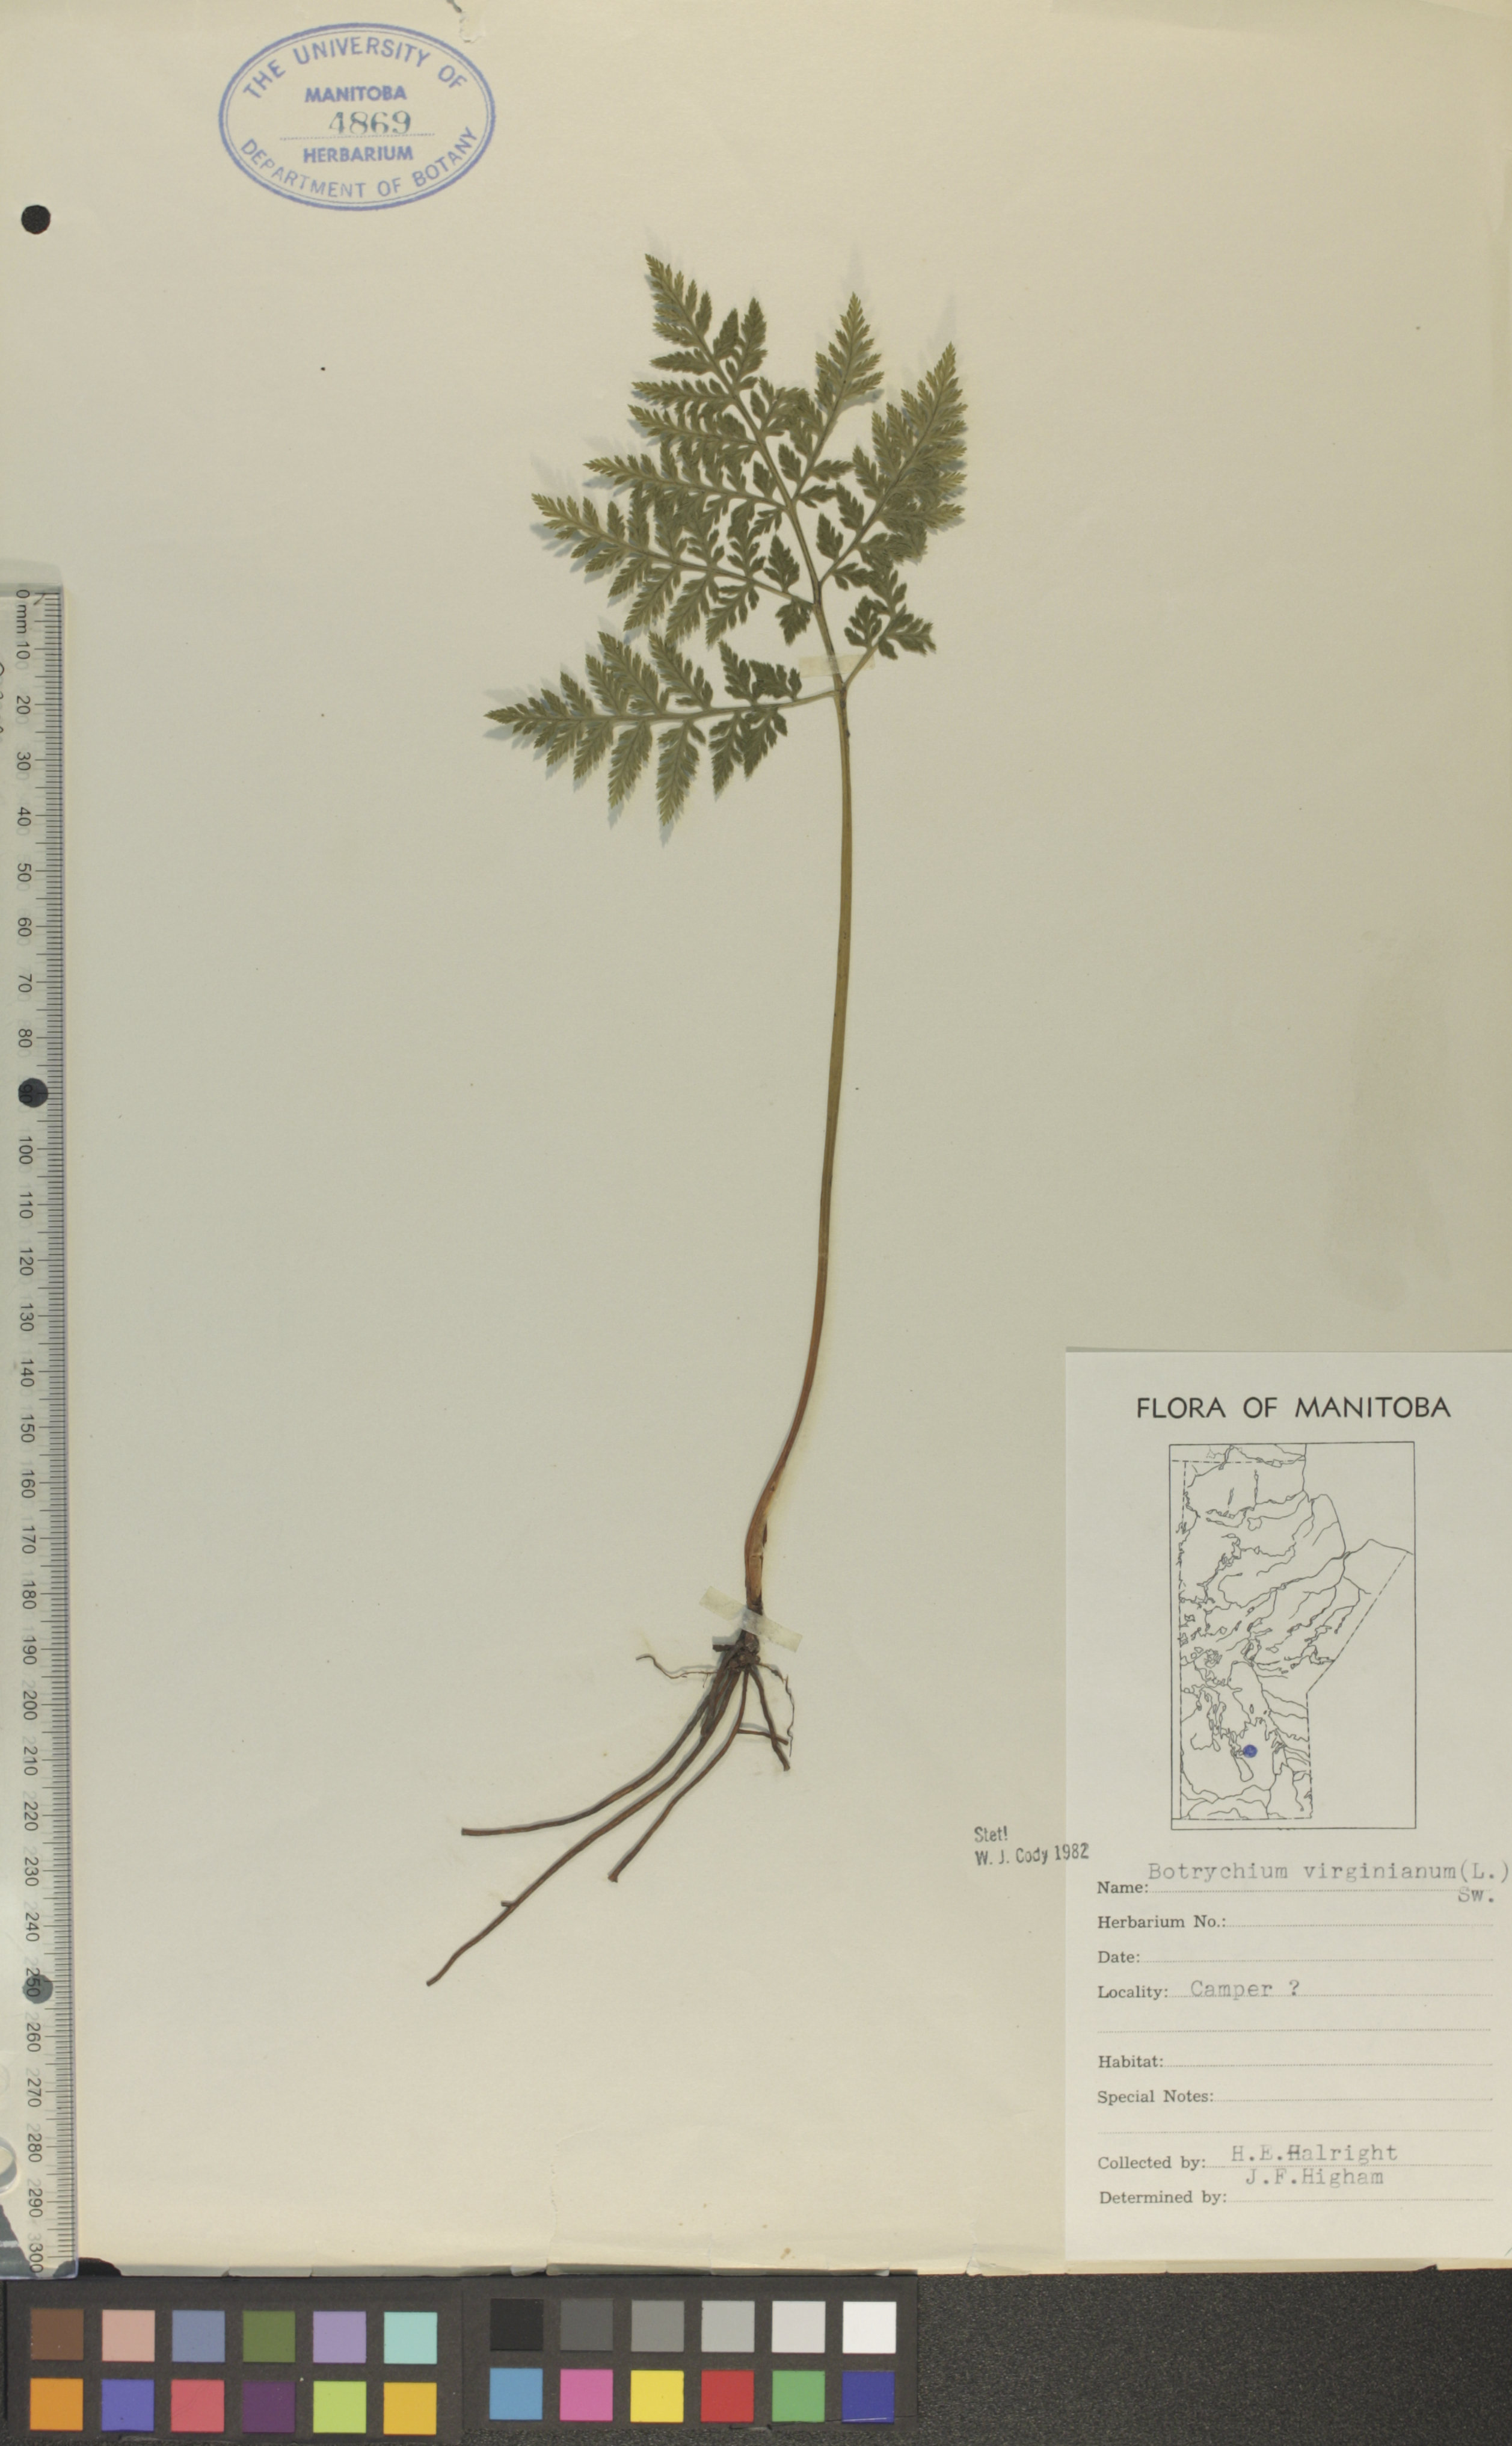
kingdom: Plantae
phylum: Tracheophyta
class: Polypodiopsida
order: Ophioglossales
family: Ophioglossaceae
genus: Botrypus
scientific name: Botrypus virginianus
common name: Common grapefern
